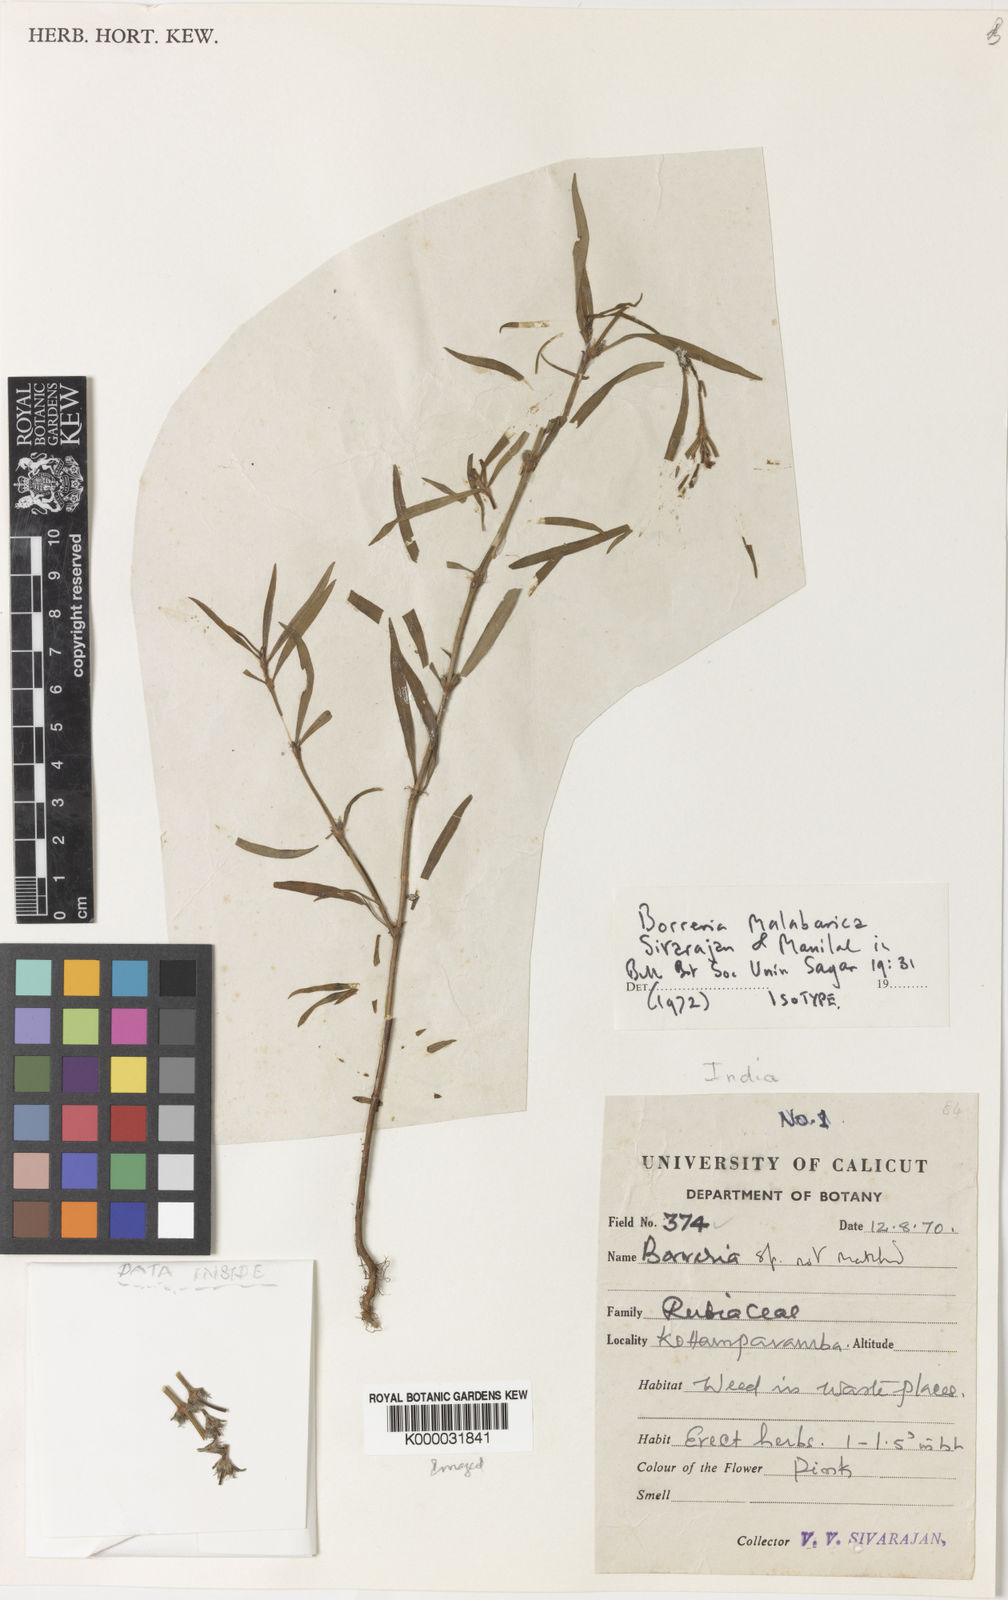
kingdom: Plantae
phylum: Tracheophyta
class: Magnoliopsida
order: Gentianales
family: Rubiaceae
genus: Spermacoce
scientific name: Spermacoce malabarica
